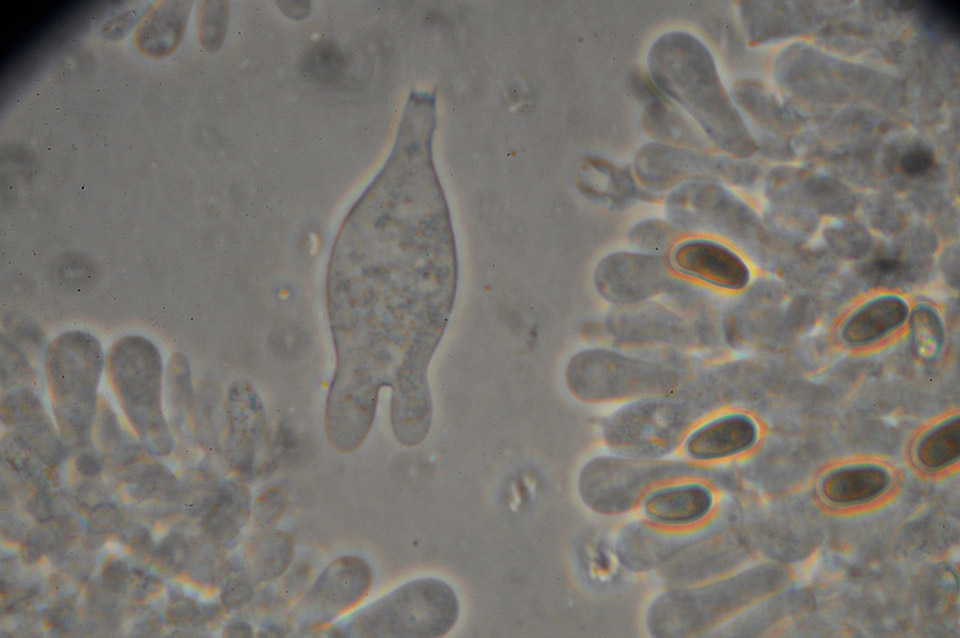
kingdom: Fungi
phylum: Basidiomycota
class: Agaricomycetes
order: Agaricales
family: Psathyrellaceae
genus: Psathyrella
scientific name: Psathyrella spadiceogrisea
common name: gråbrun mørkhat
